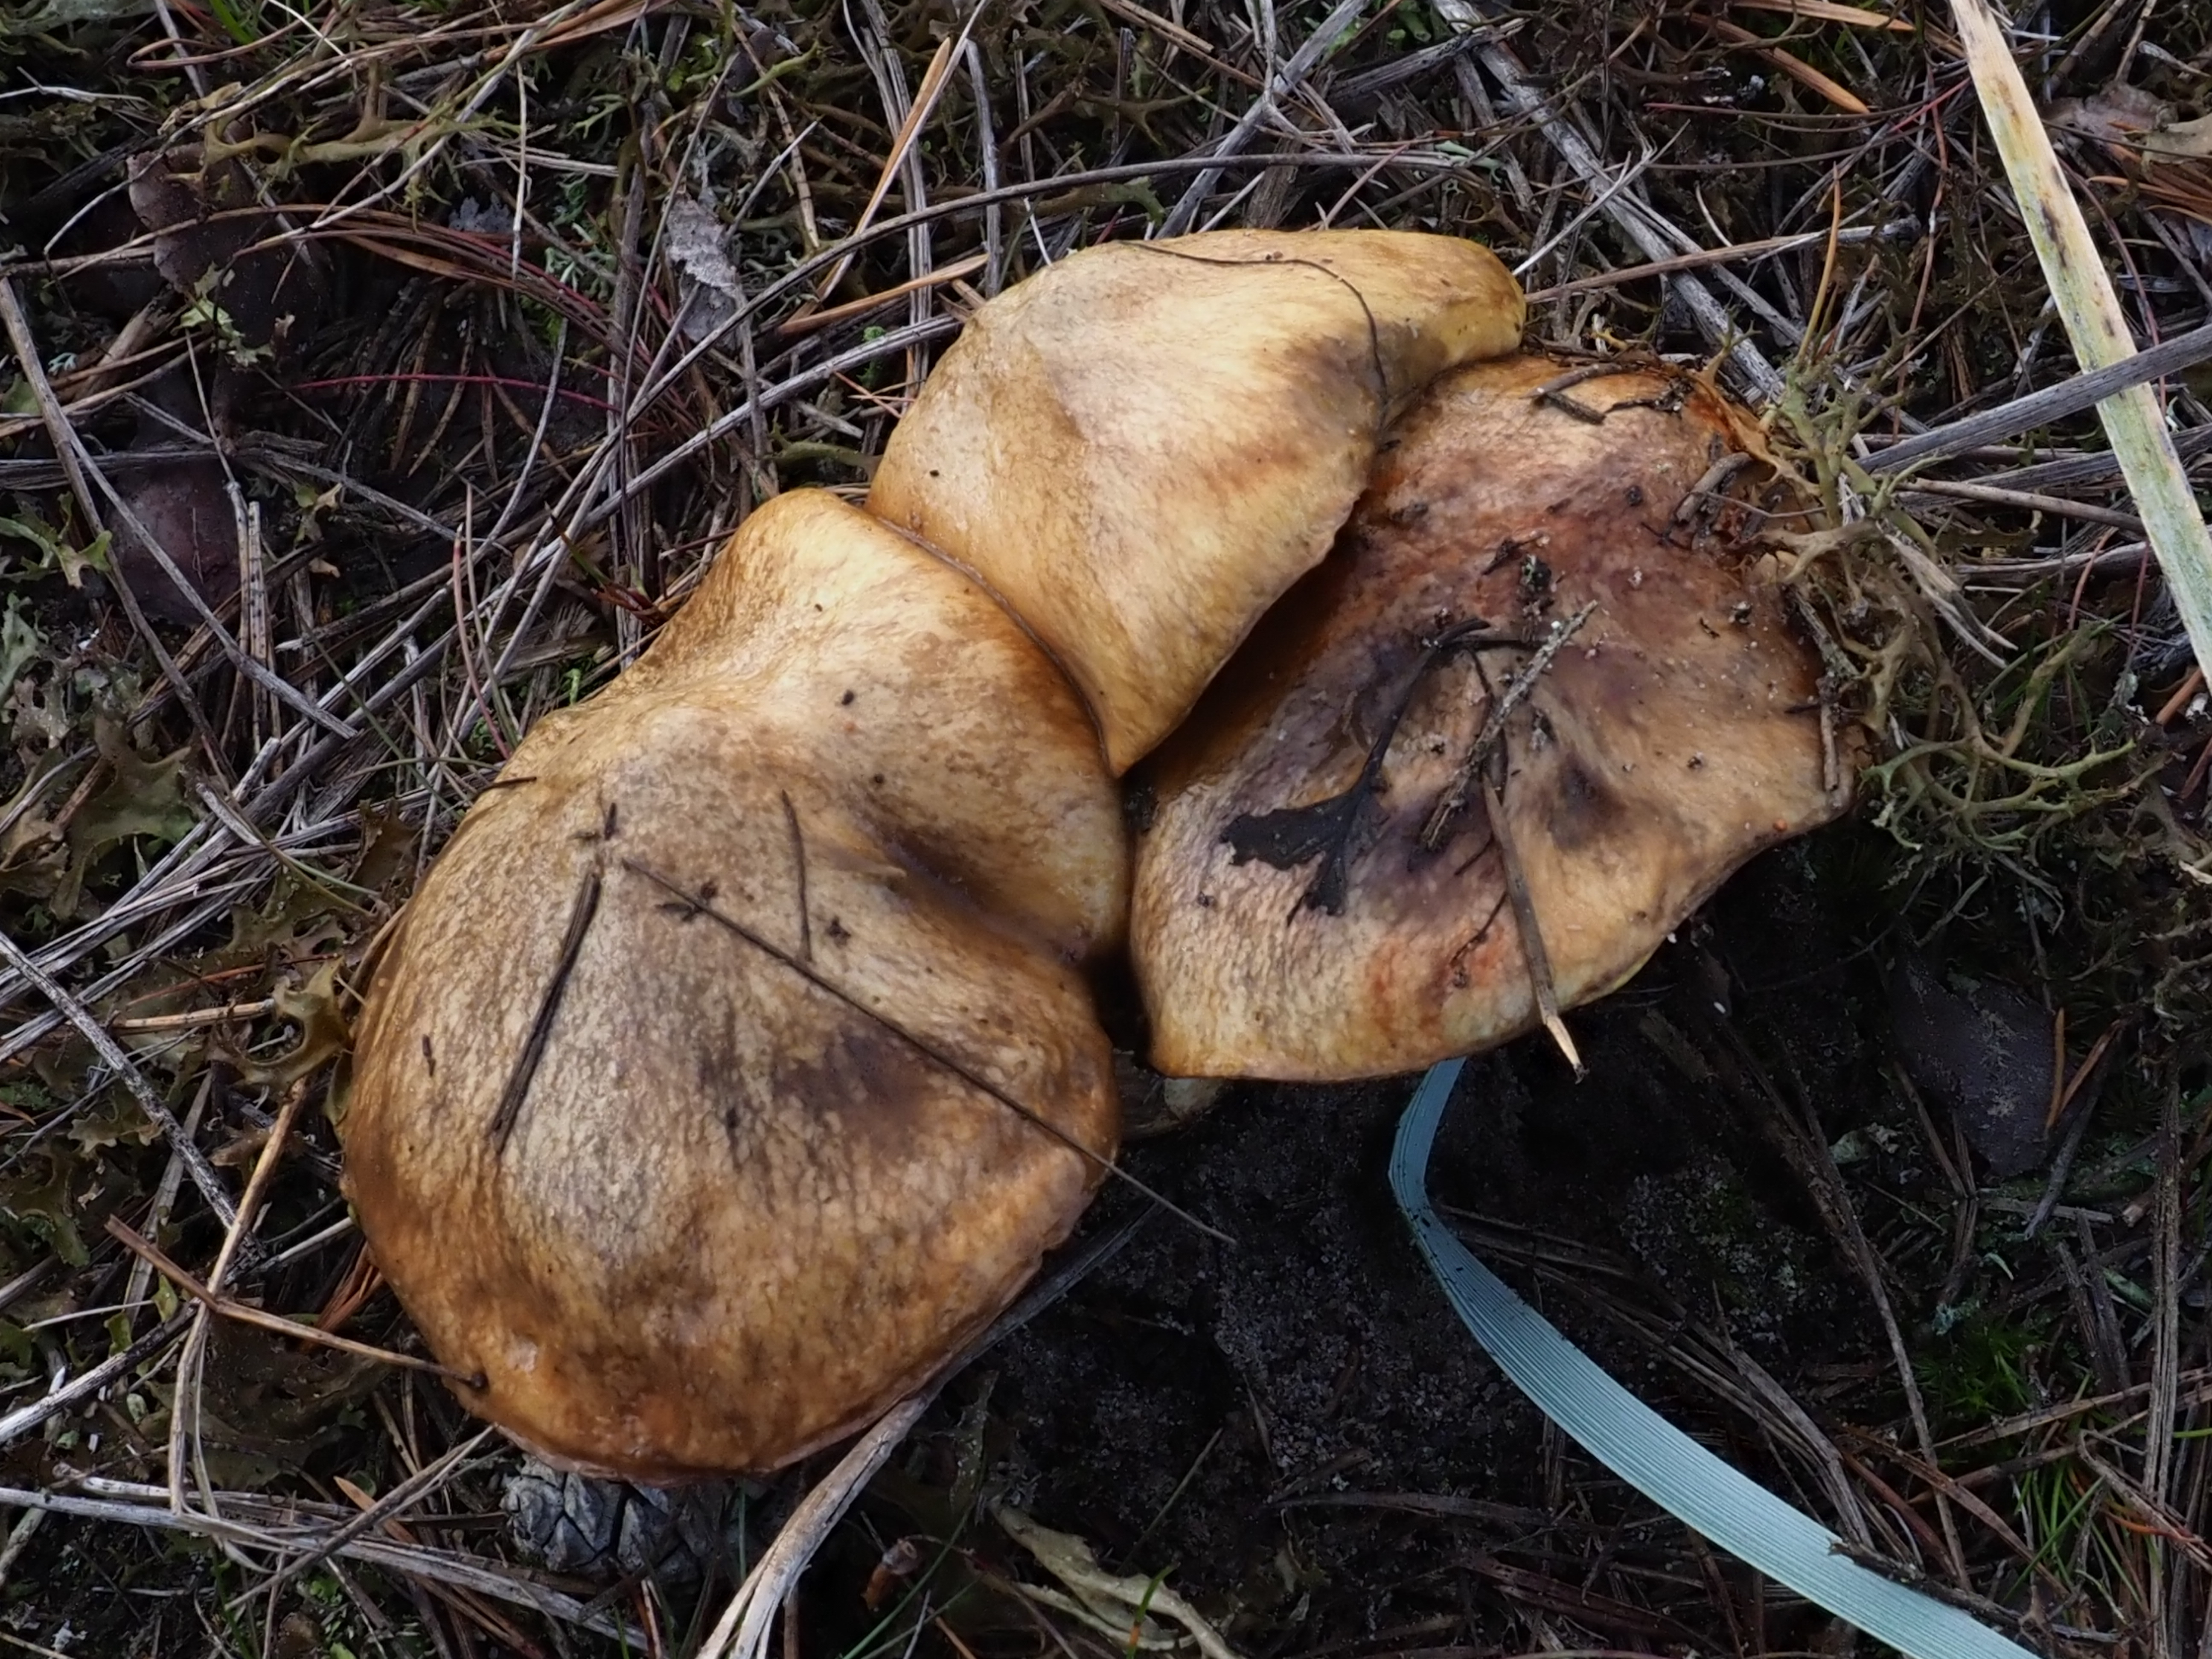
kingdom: Fungi
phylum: Basidiomycota
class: Agaricomycetes
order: Boletales
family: Suillaceae
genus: Suillus
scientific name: Suillus luteus
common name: Slippery jack
